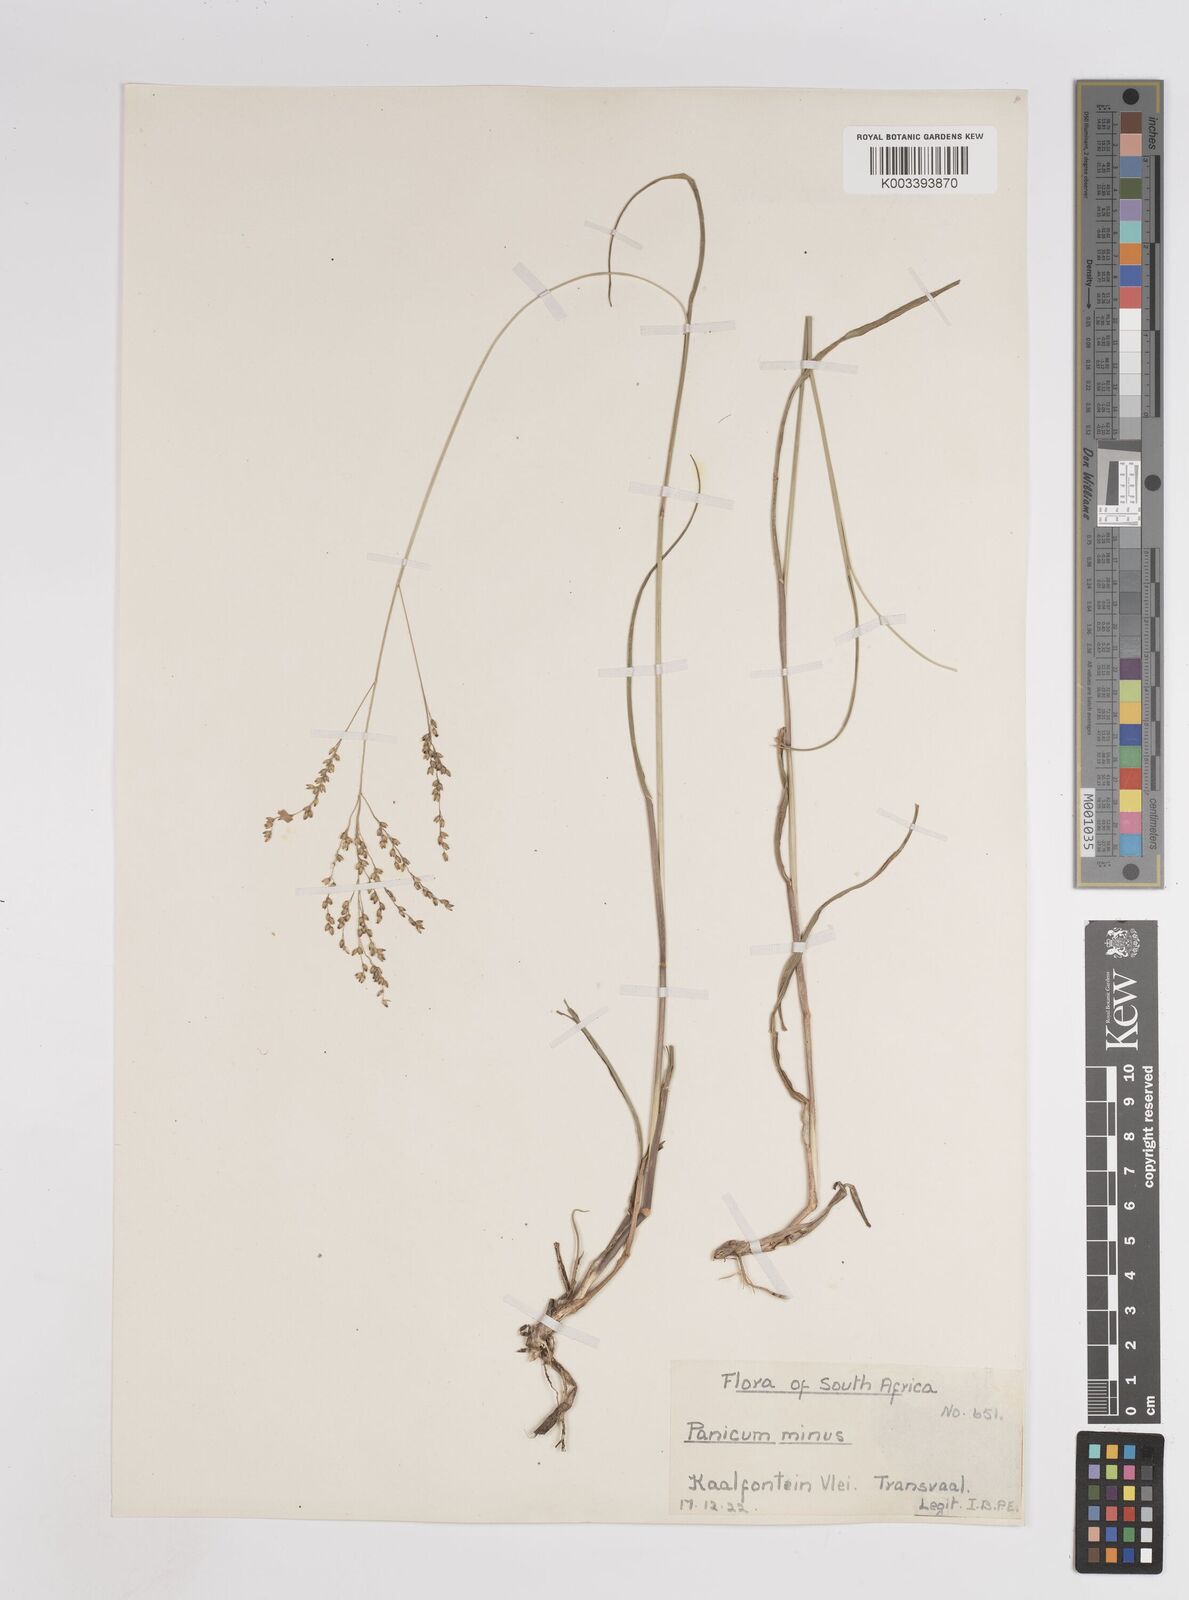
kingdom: Plantae
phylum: Tracheophyta
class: Liliopsida
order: Poales
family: Poaceae
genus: Panicum
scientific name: Panicum stapfianum
